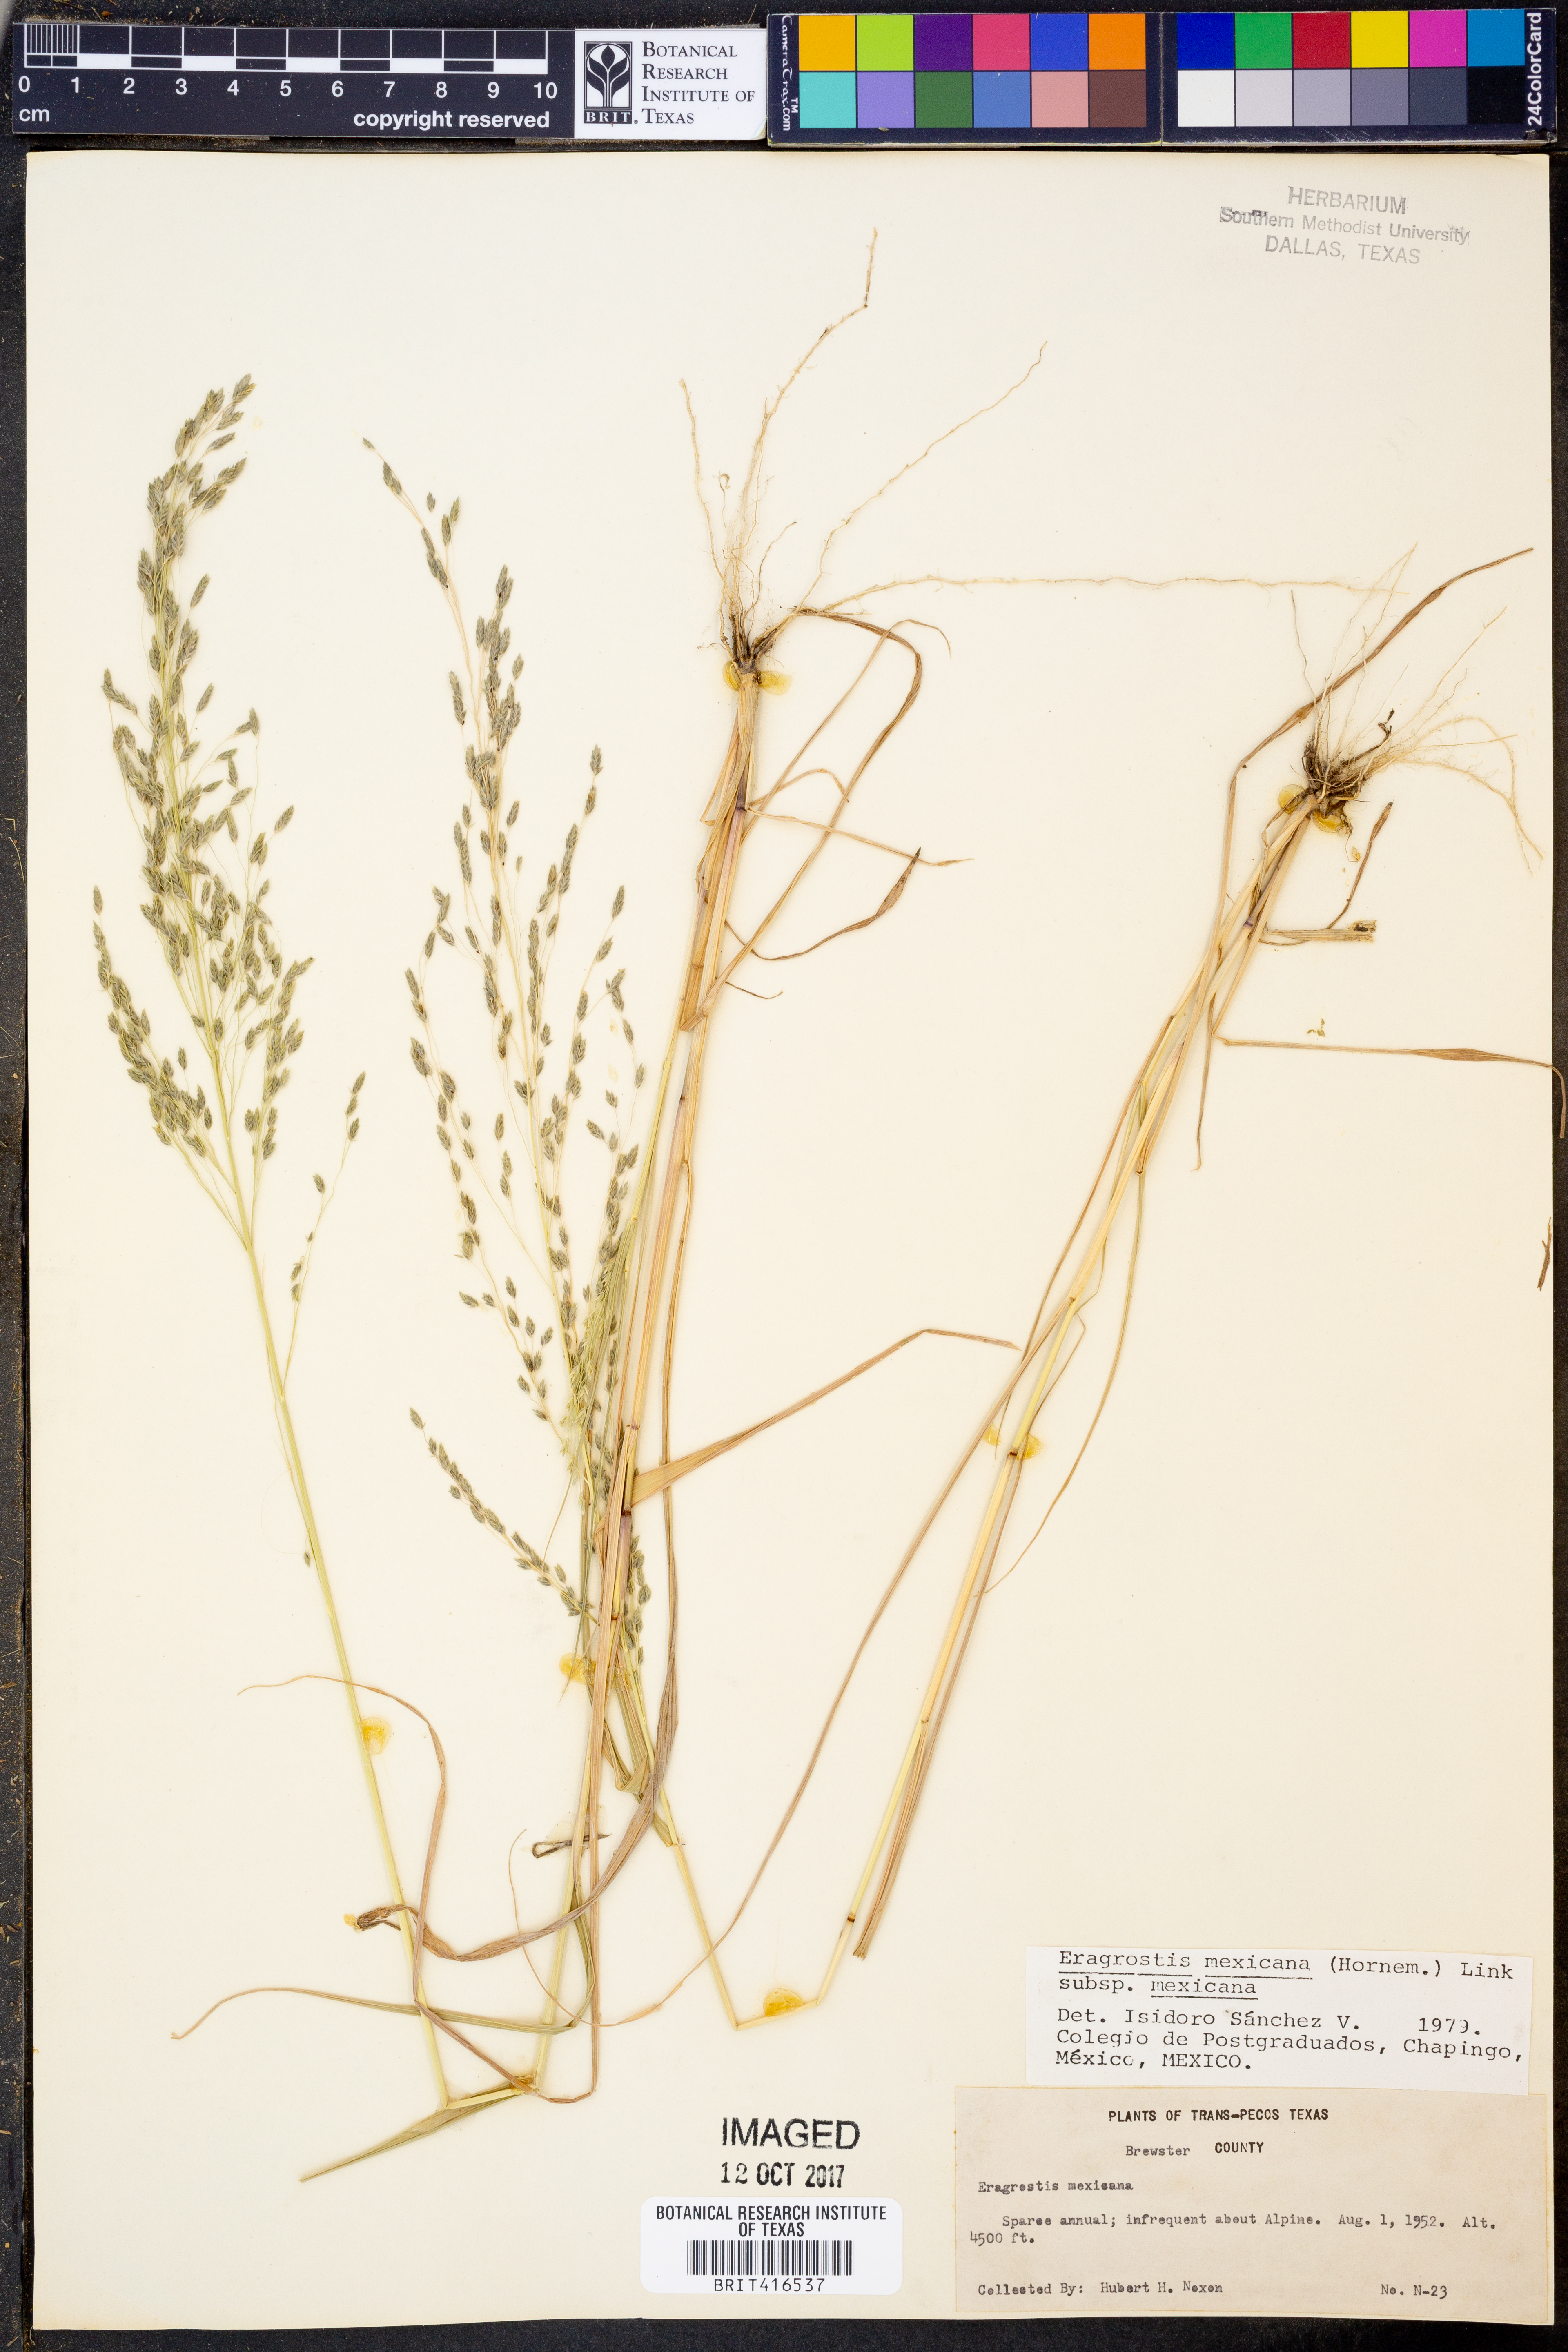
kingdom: Plantae
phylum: Tracheophyta
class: Liliopsida
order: Poales
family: Poaceae
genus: Eragrostis
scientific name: Eragrostis mexicana
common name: Mexican love grass
